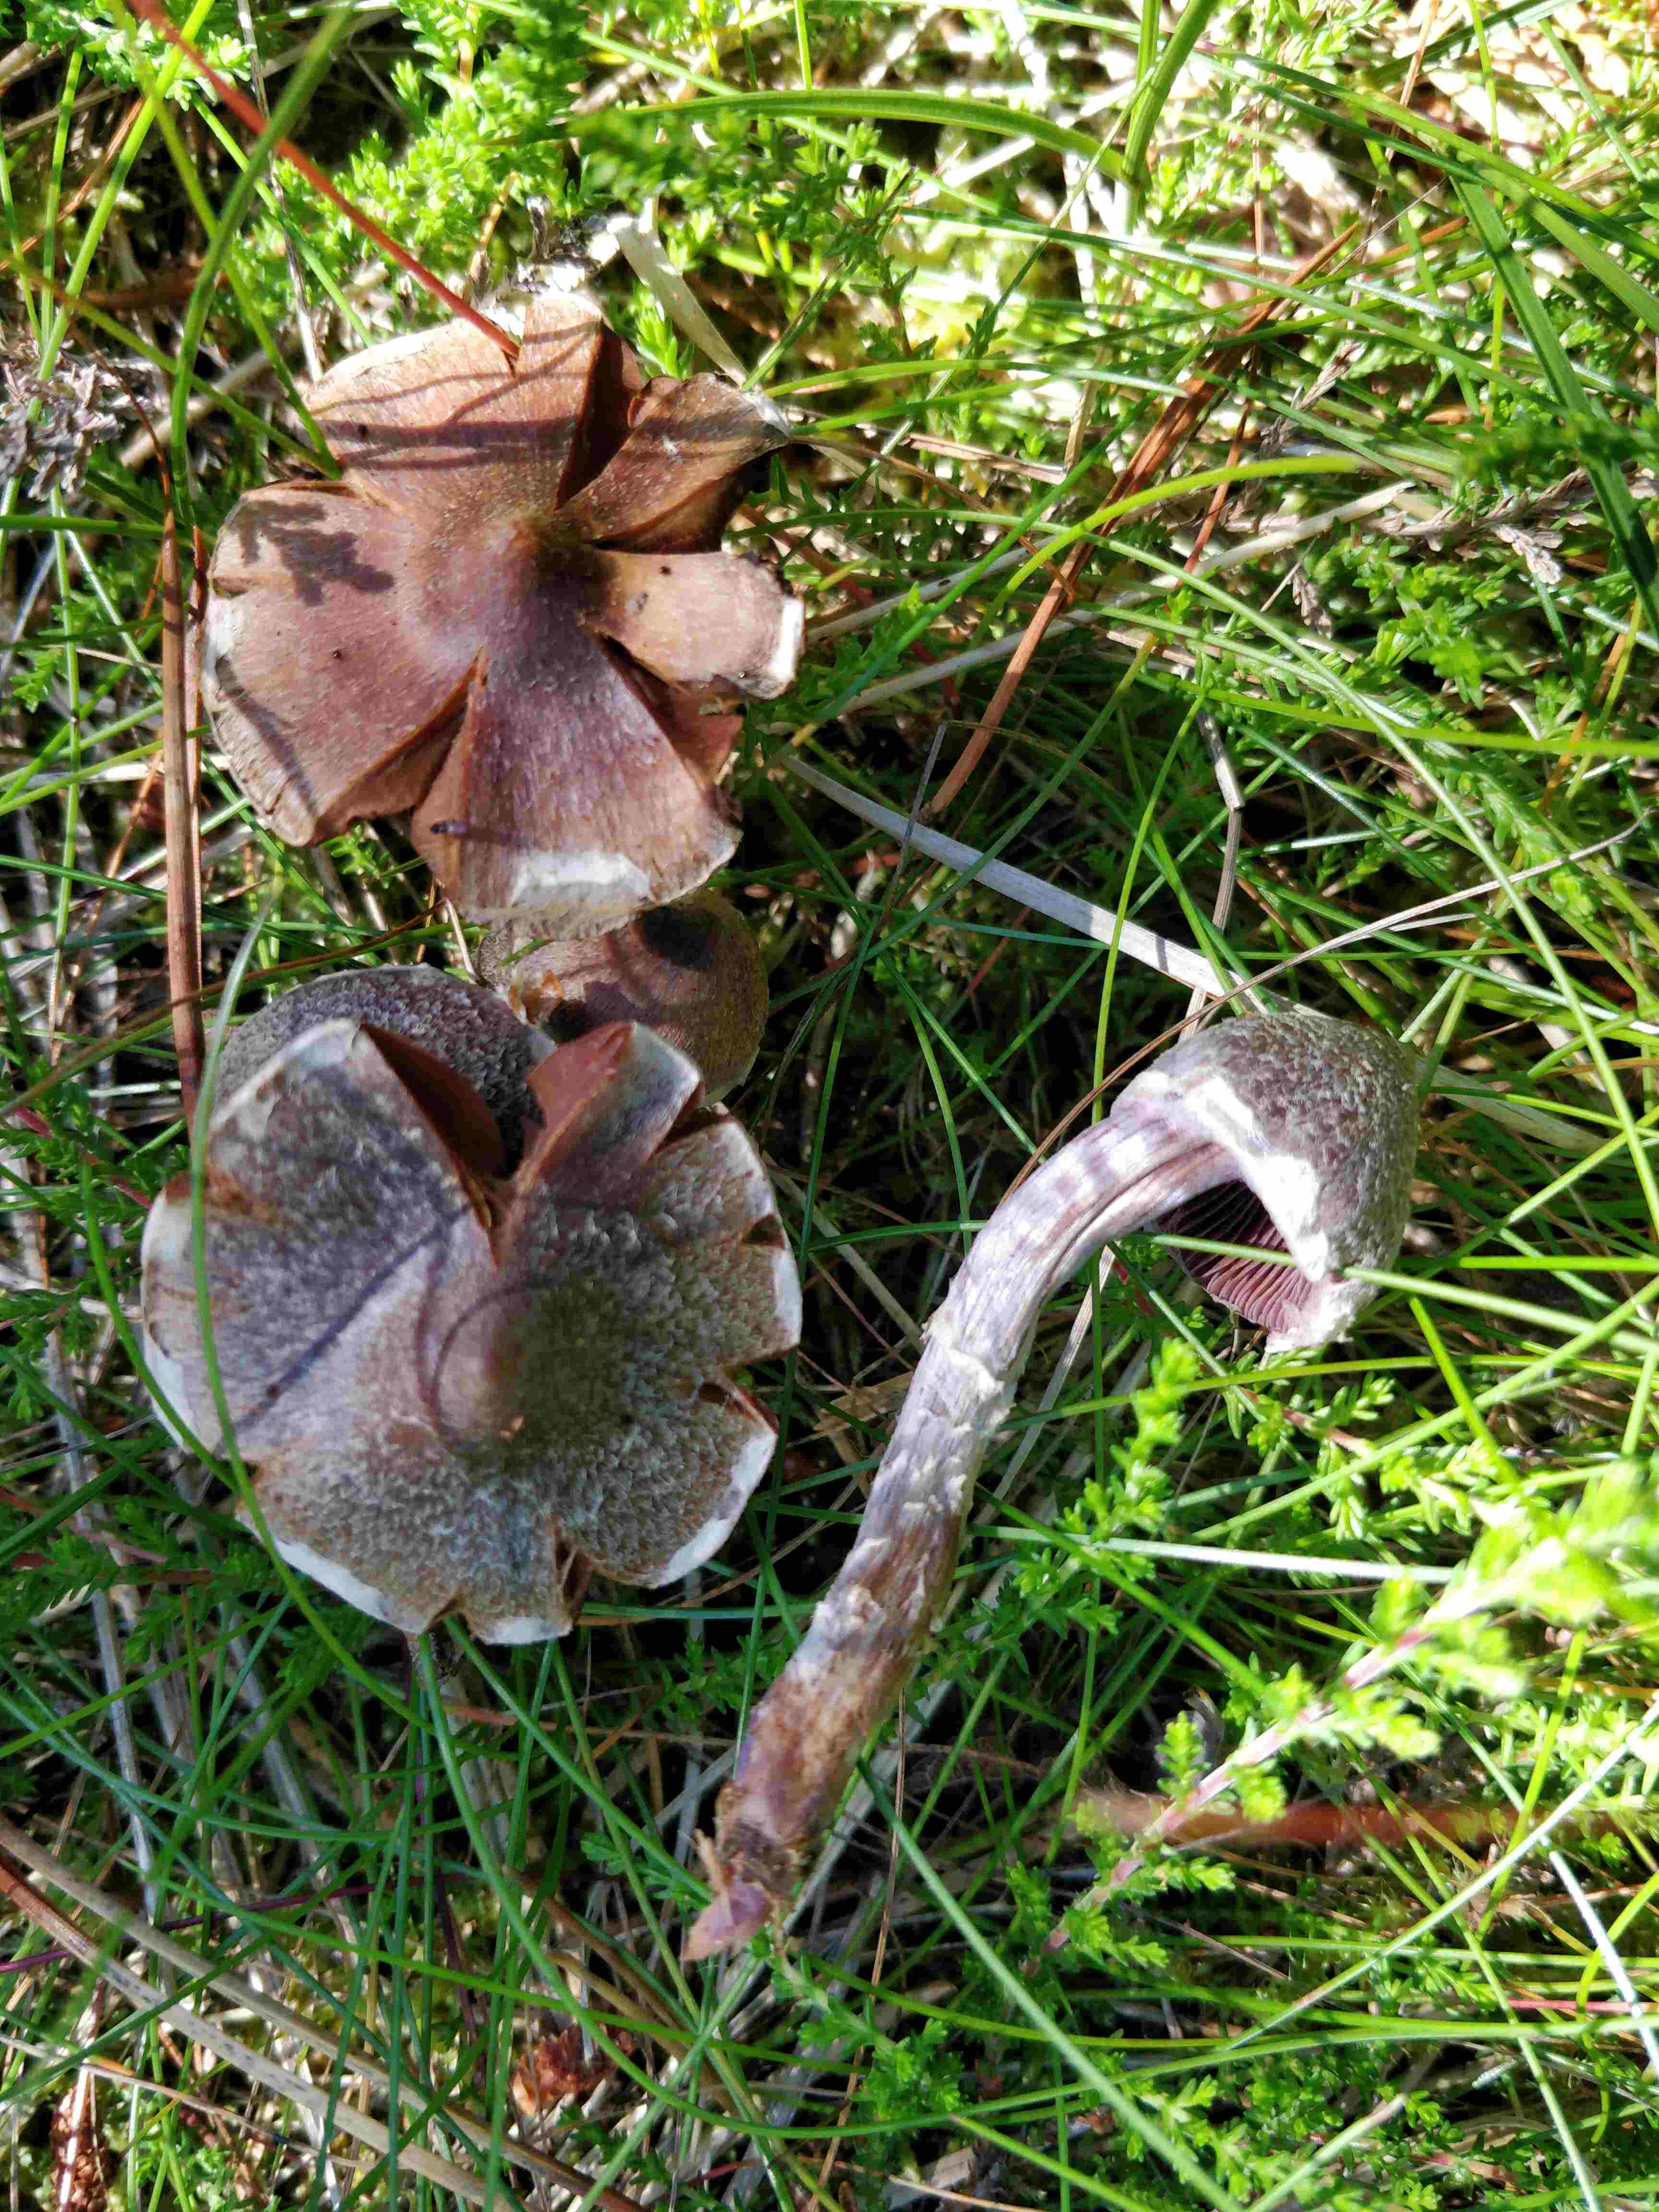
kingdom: Fungi
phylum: Basidiomycota
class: Agaricomycetes
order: Agaricales
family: Cortinariaceae
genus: Cortinarius
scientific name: Cortinarius
